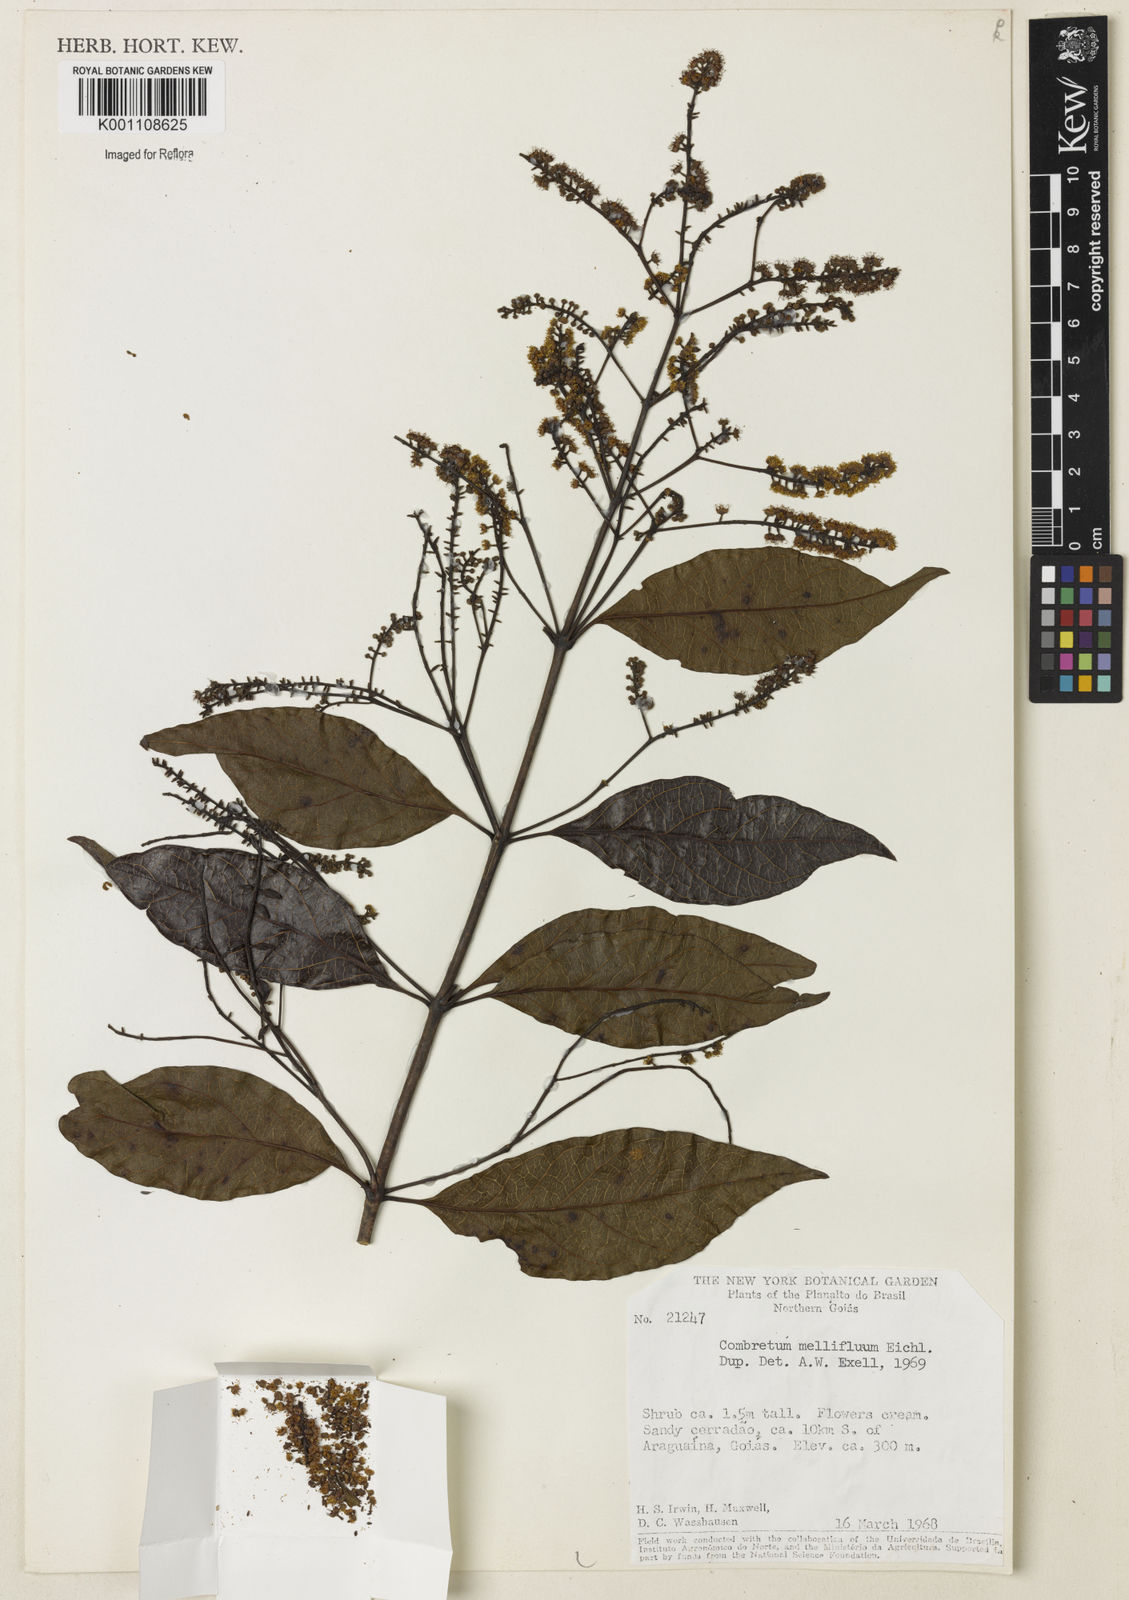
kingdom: Plantae
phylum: Tracheophyta
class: Magnoliopsida
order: Myrtales
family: Combretaceae
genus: Combretum
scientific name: Combretum mellifluum
